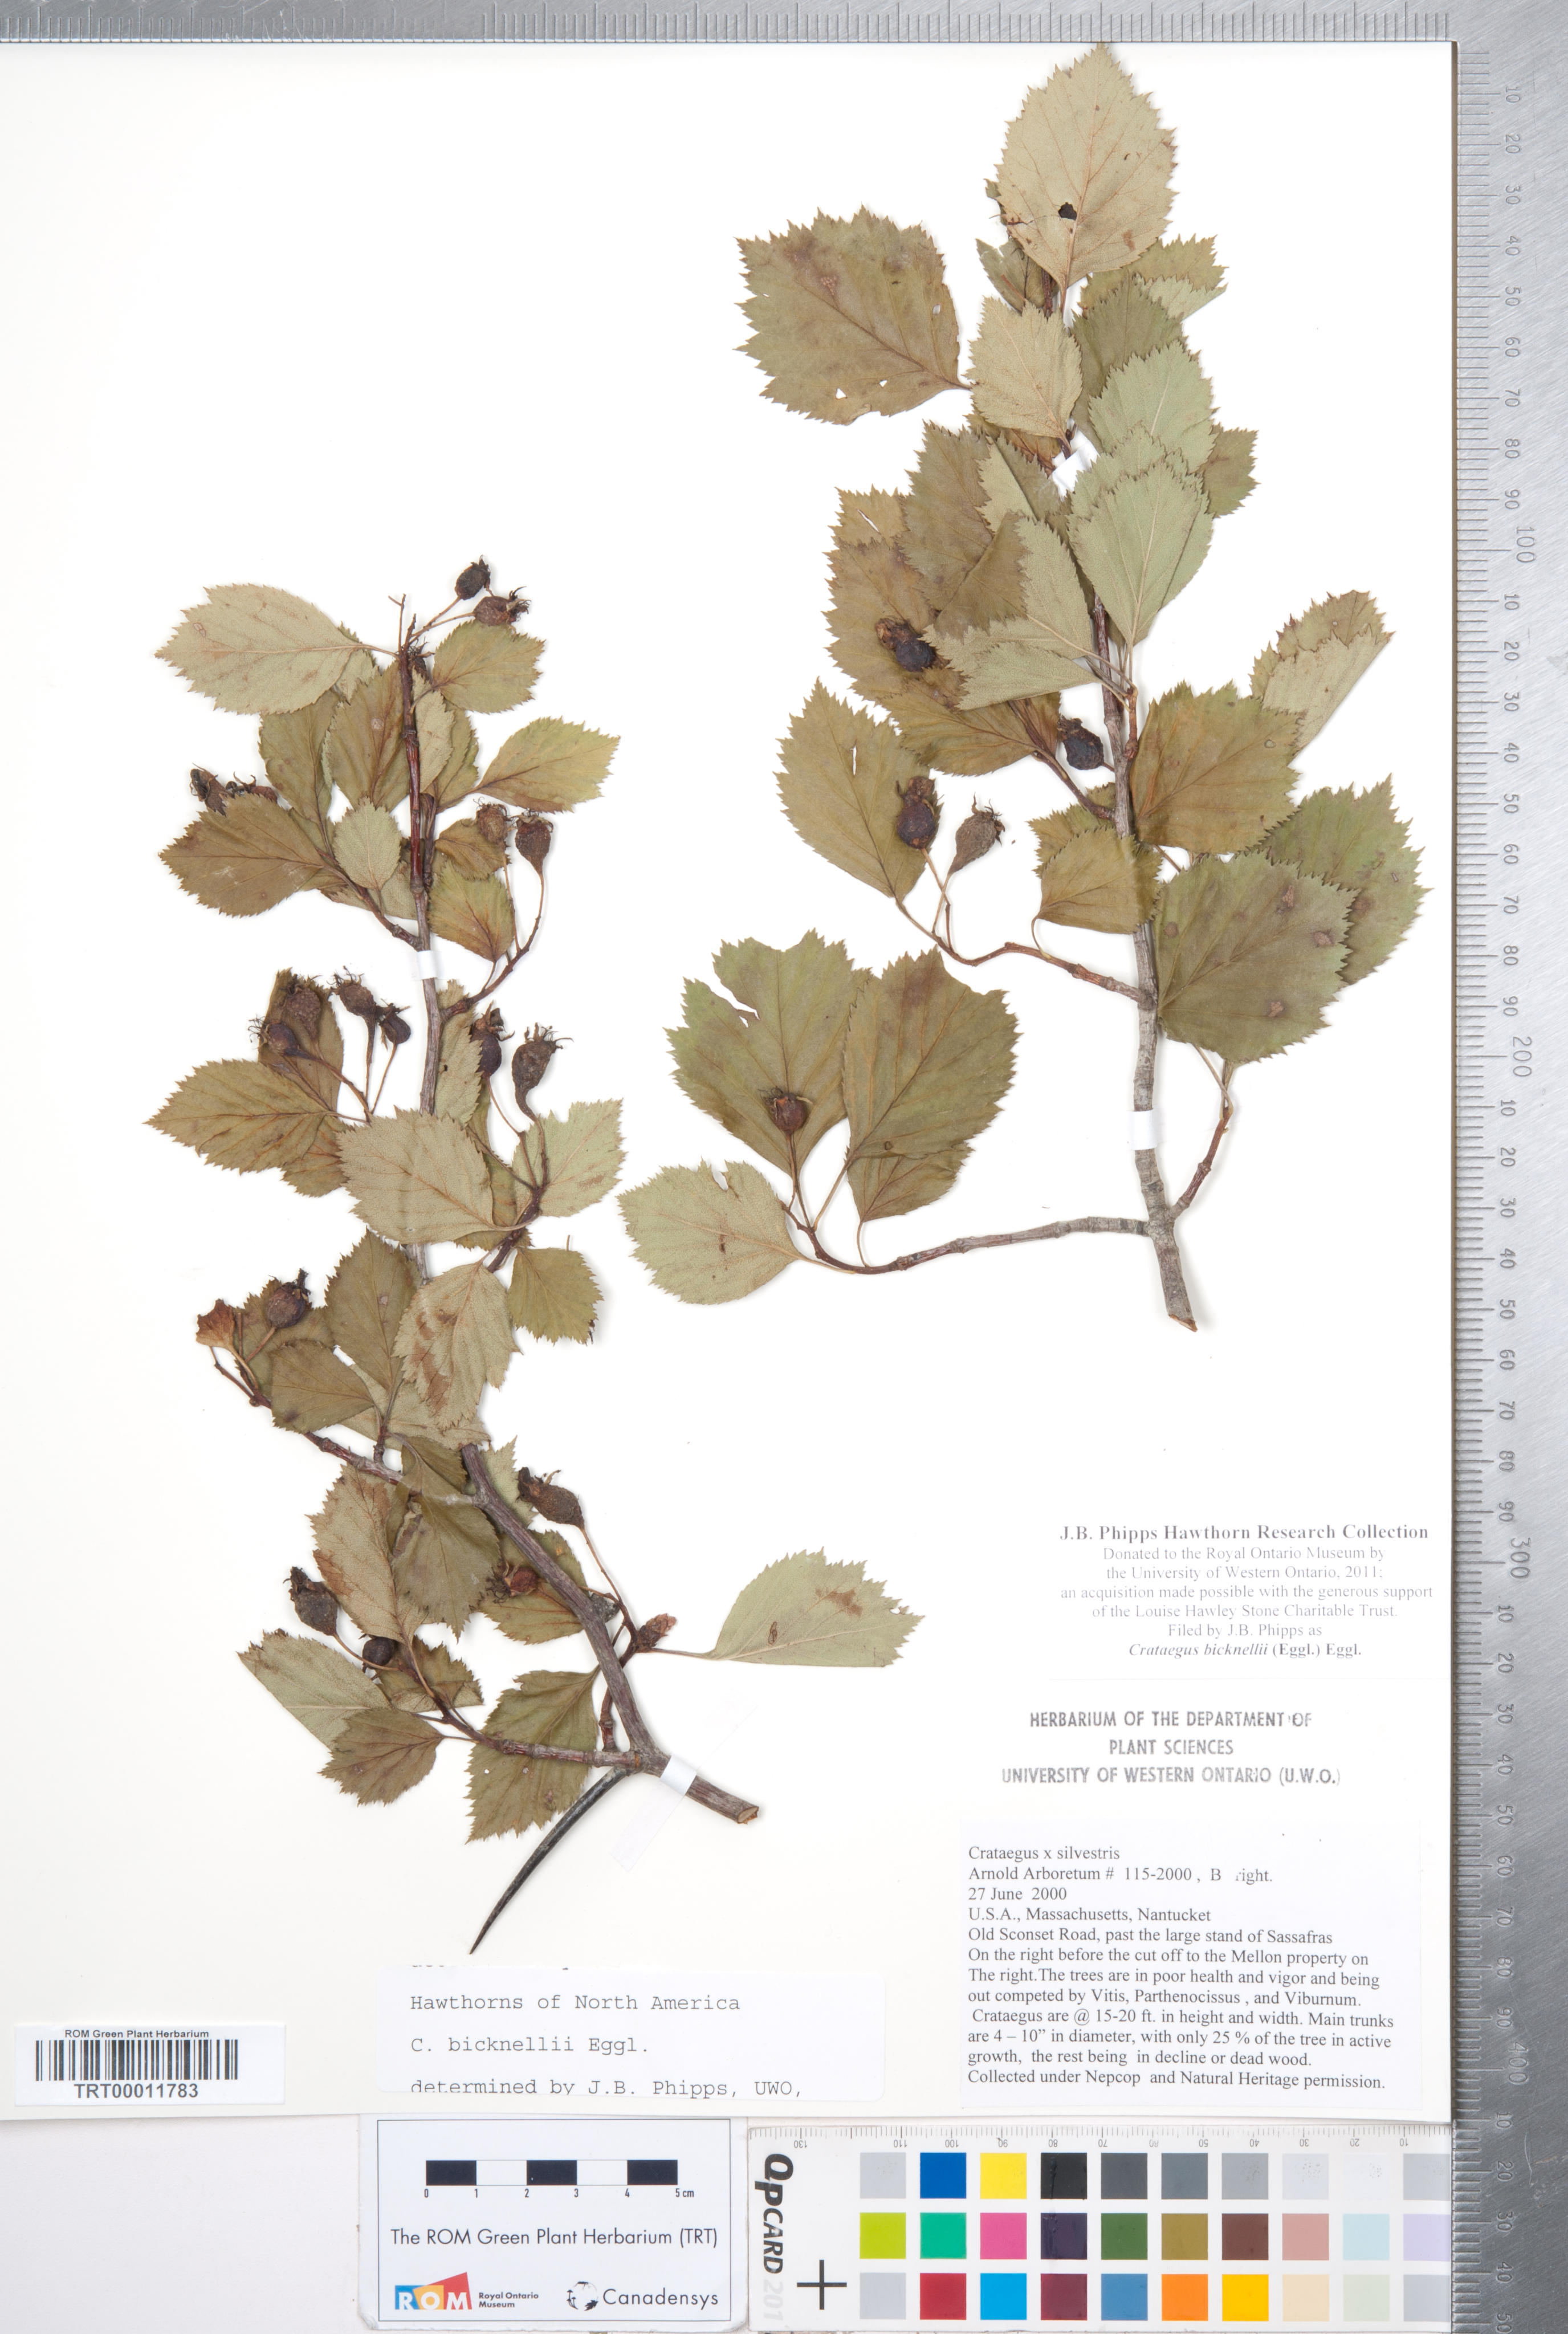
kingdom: Plantae
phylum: Tracheophyta
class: Magnoliopsida
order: Rosales
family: Rosaceae
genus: Crataegus
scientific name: Crataegus bicknellii
